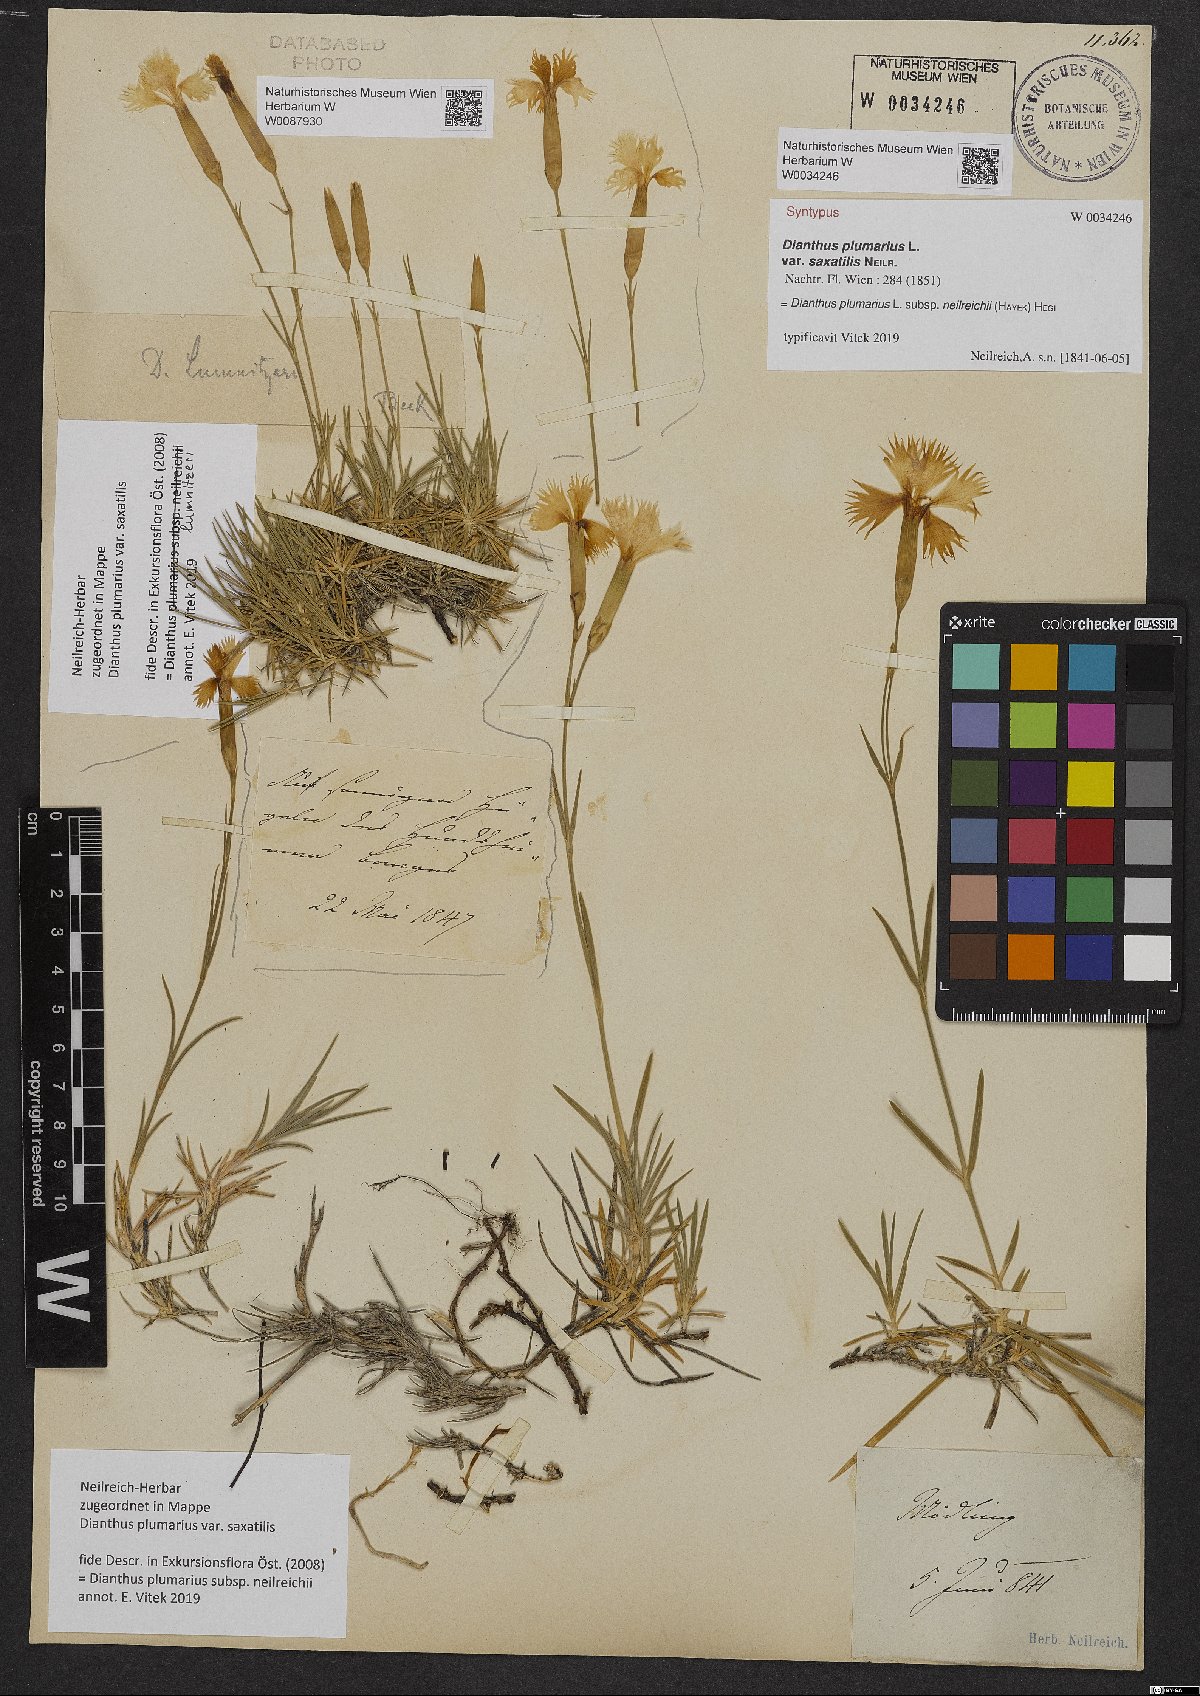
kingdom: Plantae
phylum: Tracheophyta
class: Magnoliopsida
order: Caryophyllales
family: Caryophyllaceae
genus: Dianthus
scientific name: Dianthus praecox
